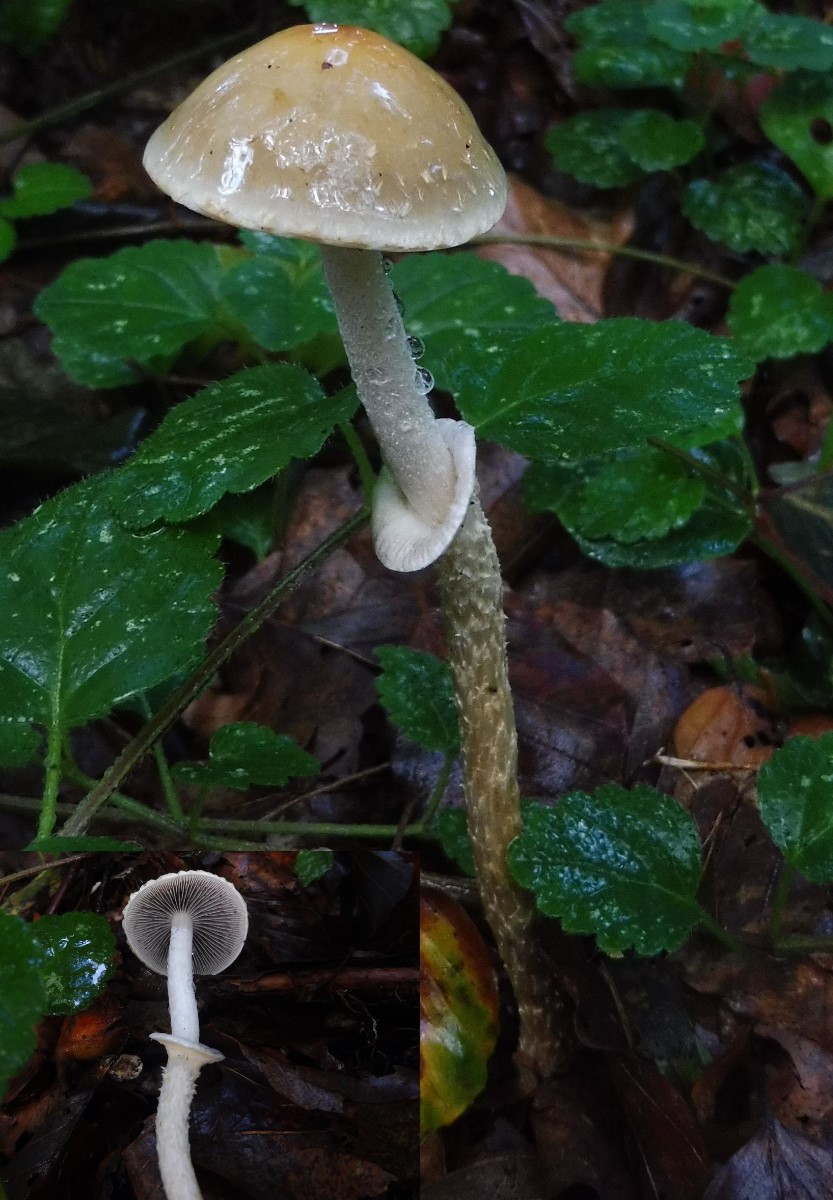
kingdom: Fungi
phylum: Basidiomycota
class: Agaricomycetes
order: Agaricales
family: Strophariaceae
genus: Leratiomyces
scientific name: Leratiomyces squamosus
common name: skællet bredblad
